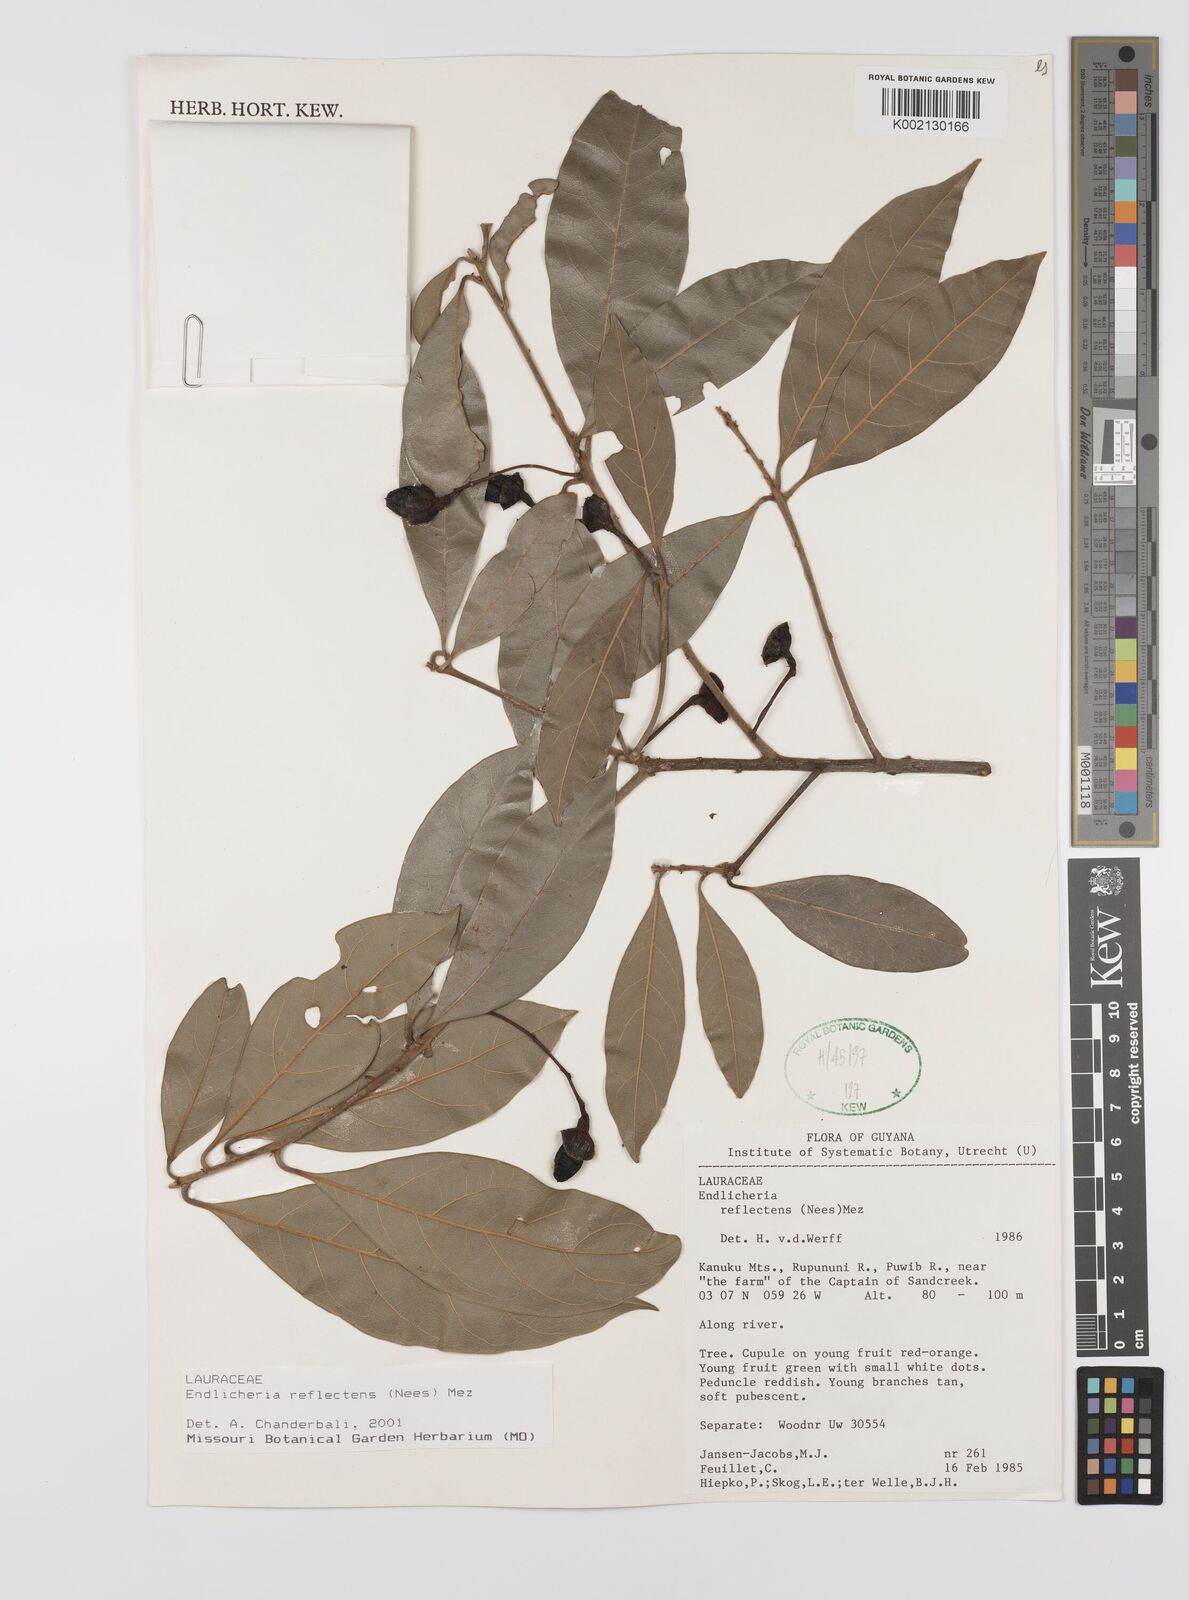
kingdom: Plantae
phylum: Tracheophyta
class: Magnoliopsida
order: Laurales
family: Lauraceae
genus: Endlicheria
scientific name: Endlicheria reflectens
